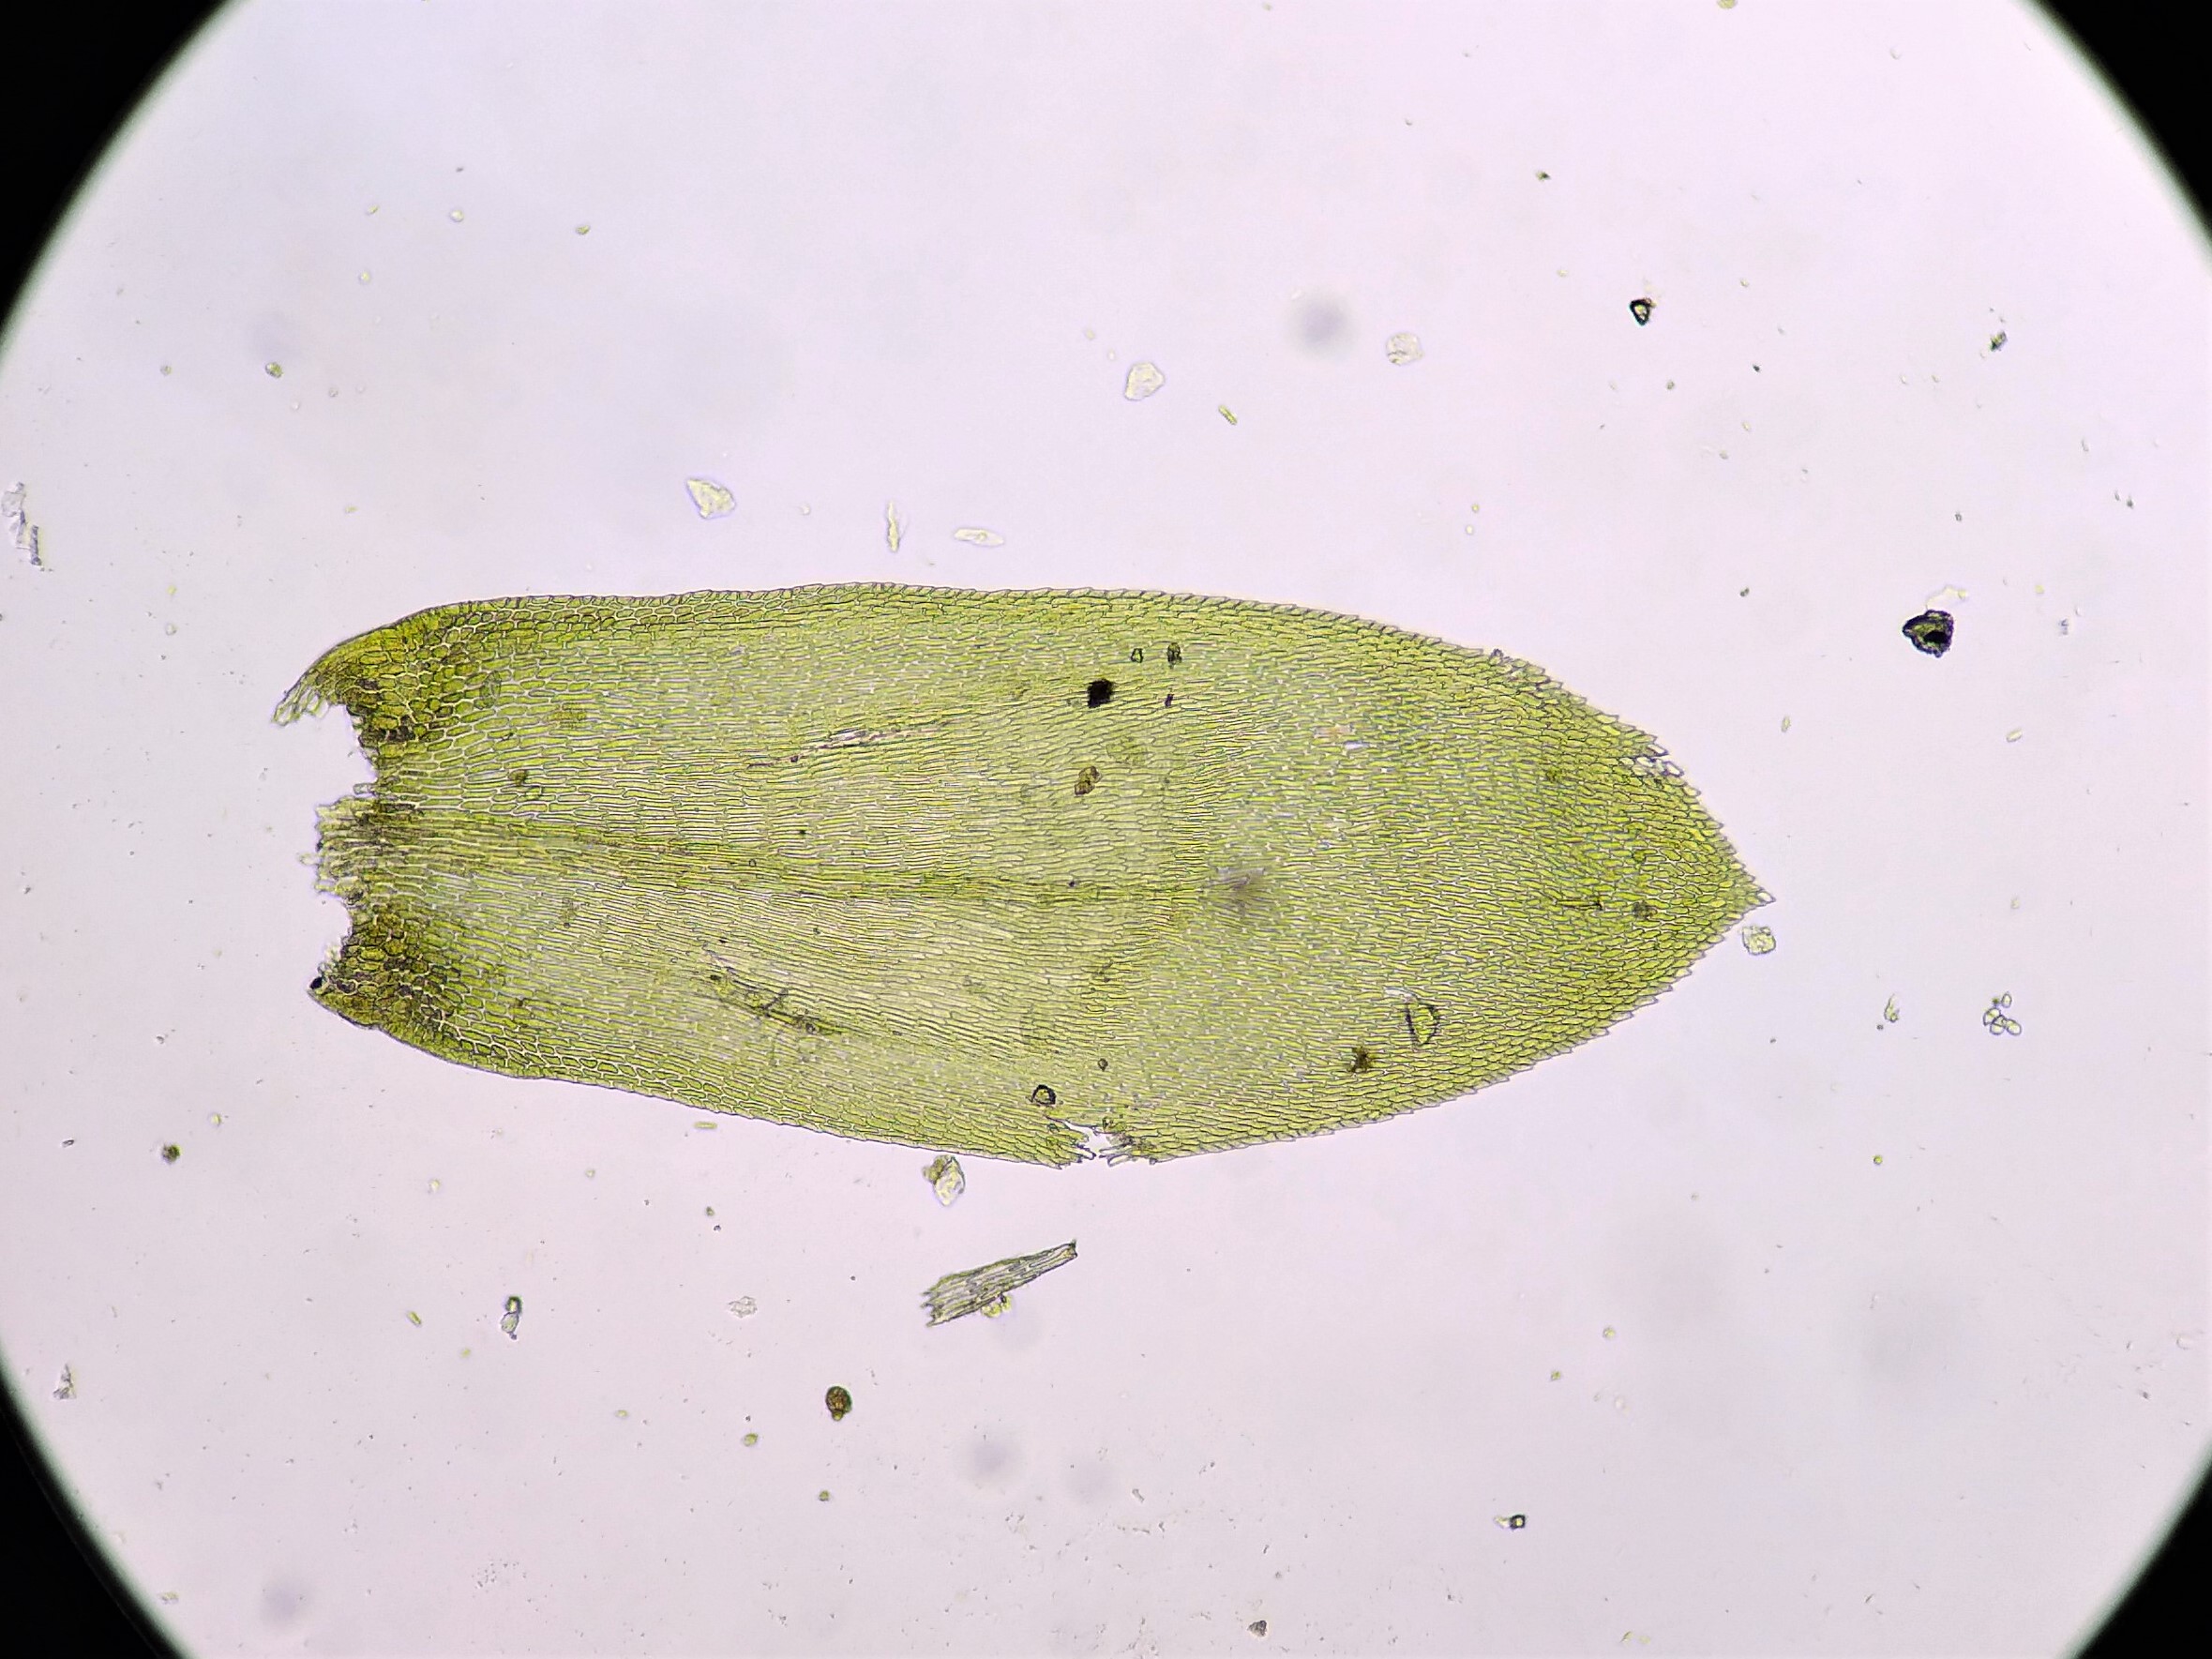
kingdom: Plantae
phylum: Bryophyta
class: Bryopsida
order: Hypnales
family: Lembophyllaceae
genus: Isothecium
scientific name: Isothecium alopecuroides
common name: Stor stammemos
